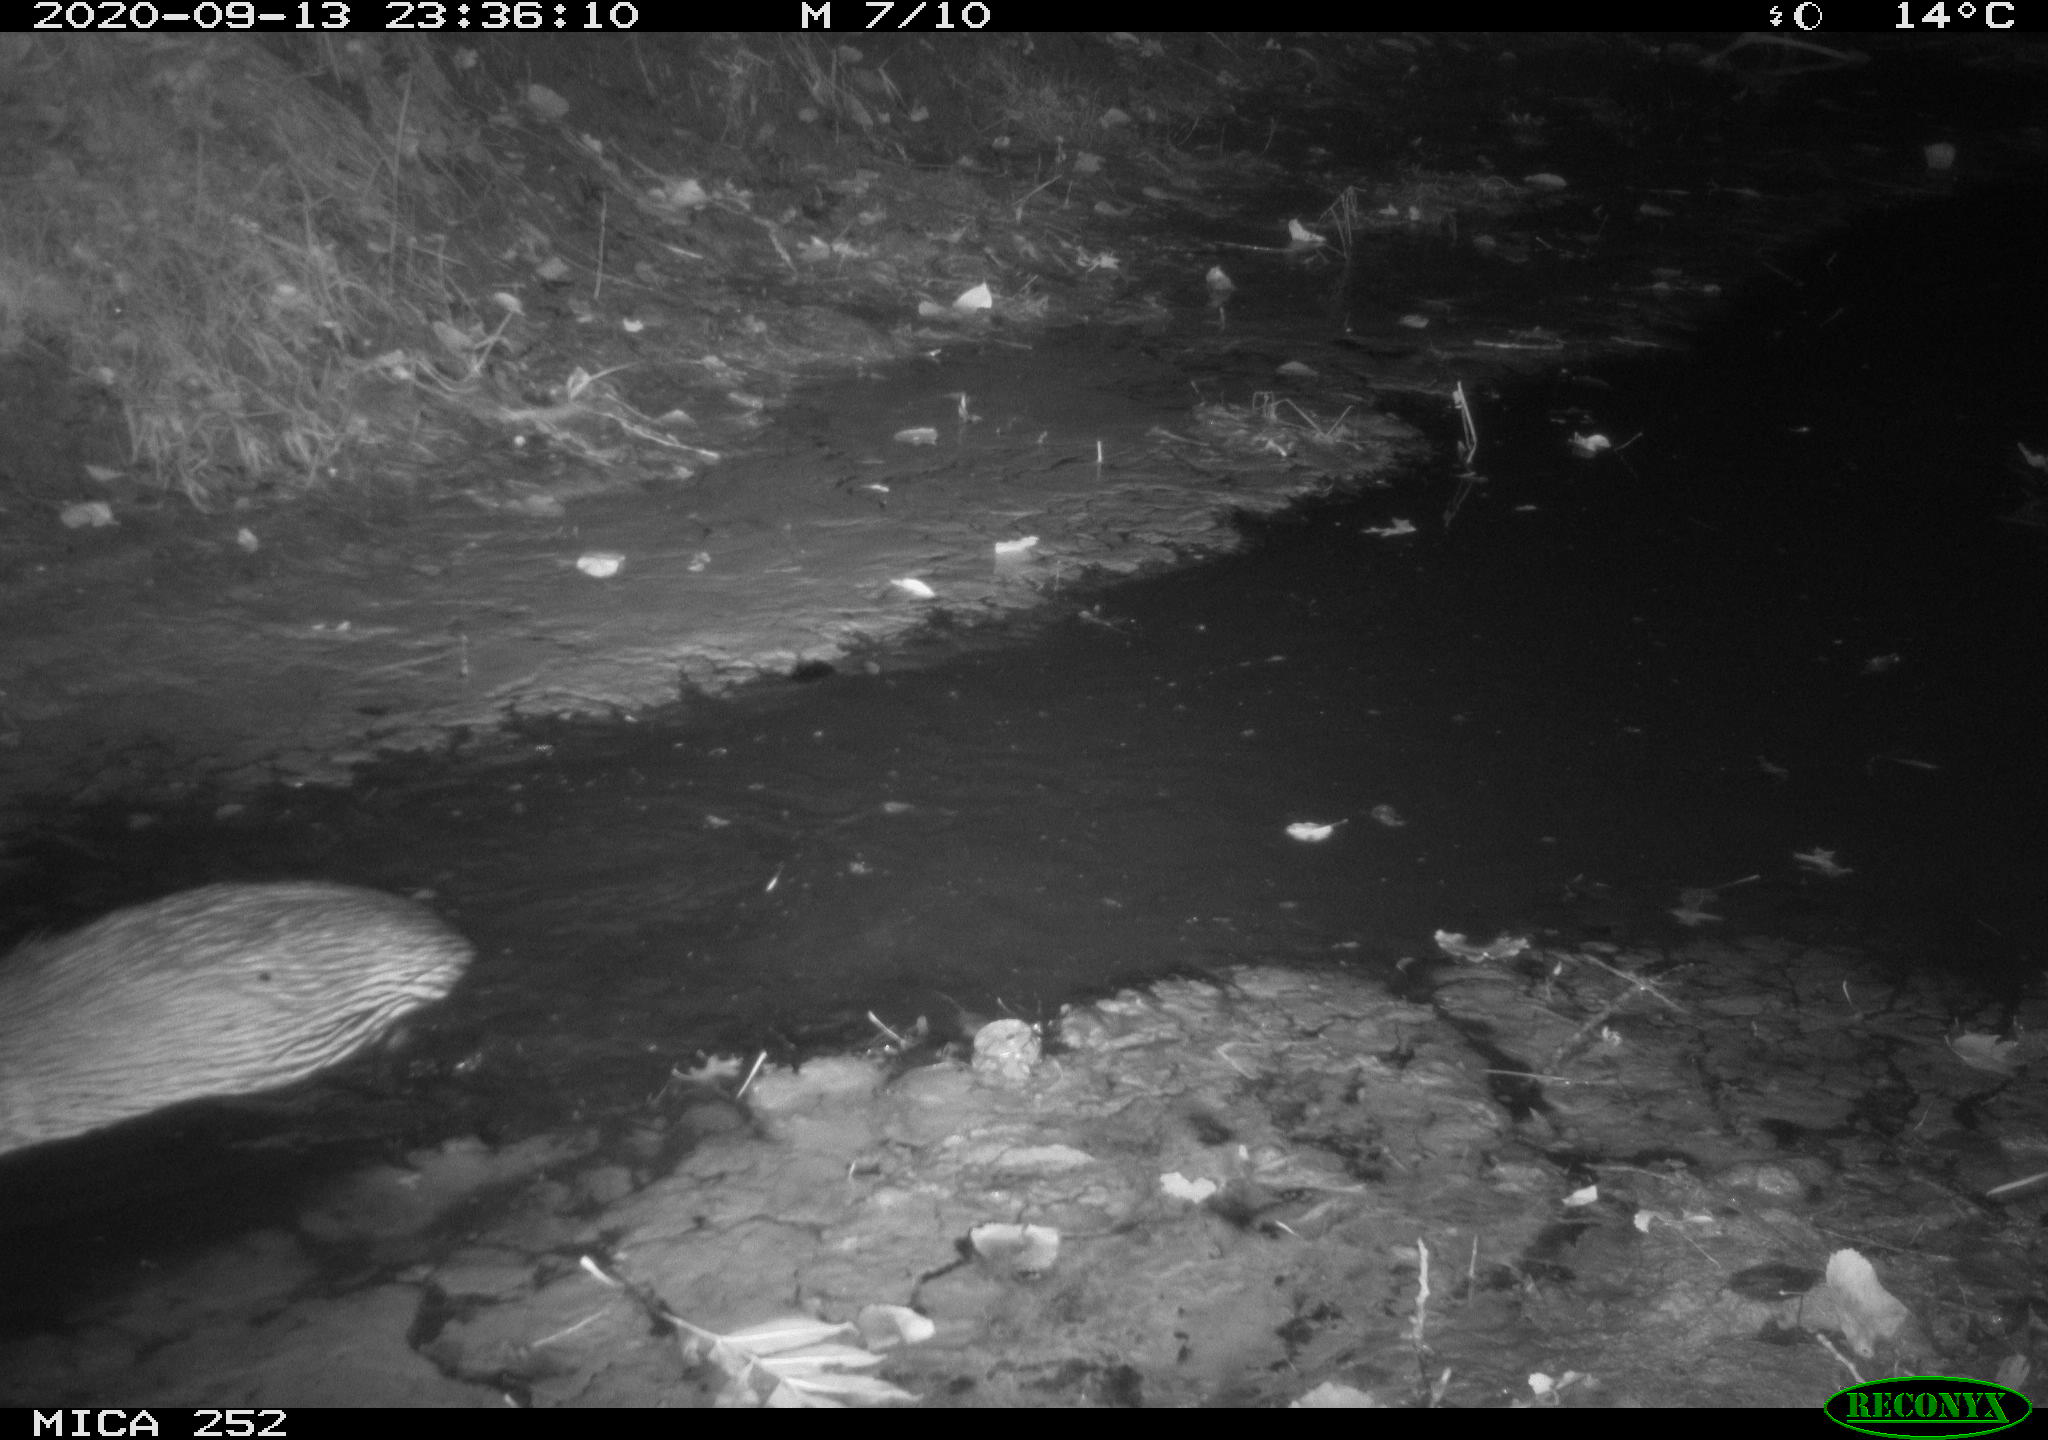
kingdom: Animalia
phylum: Chordata
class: Mammalia
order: Rodentia
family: Castoridae
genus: Castor
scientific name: Castor fiber
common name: Eurasian beaver
